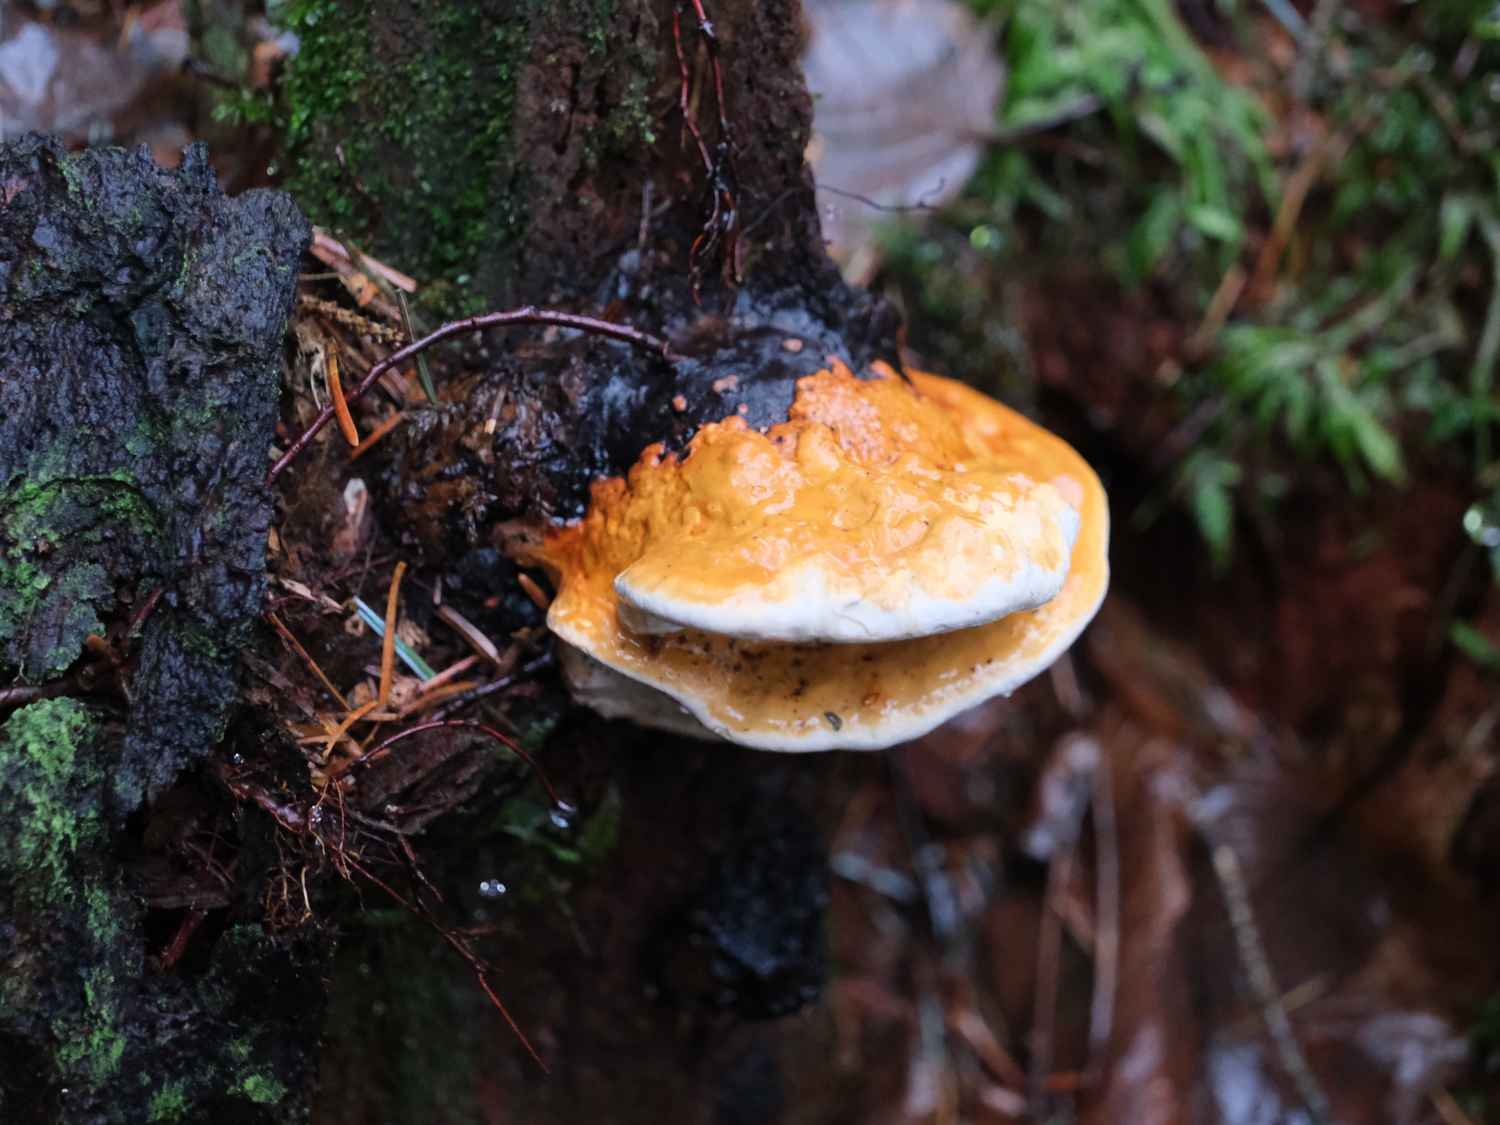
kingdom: Fungi
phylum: Basidiomycota
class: Agaricomycetes
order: Polyporales
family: Fomitopsidaceae
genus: Fomitopsis
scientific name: Fomitopsis pinicola
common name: randbæltet hovporesvamp
